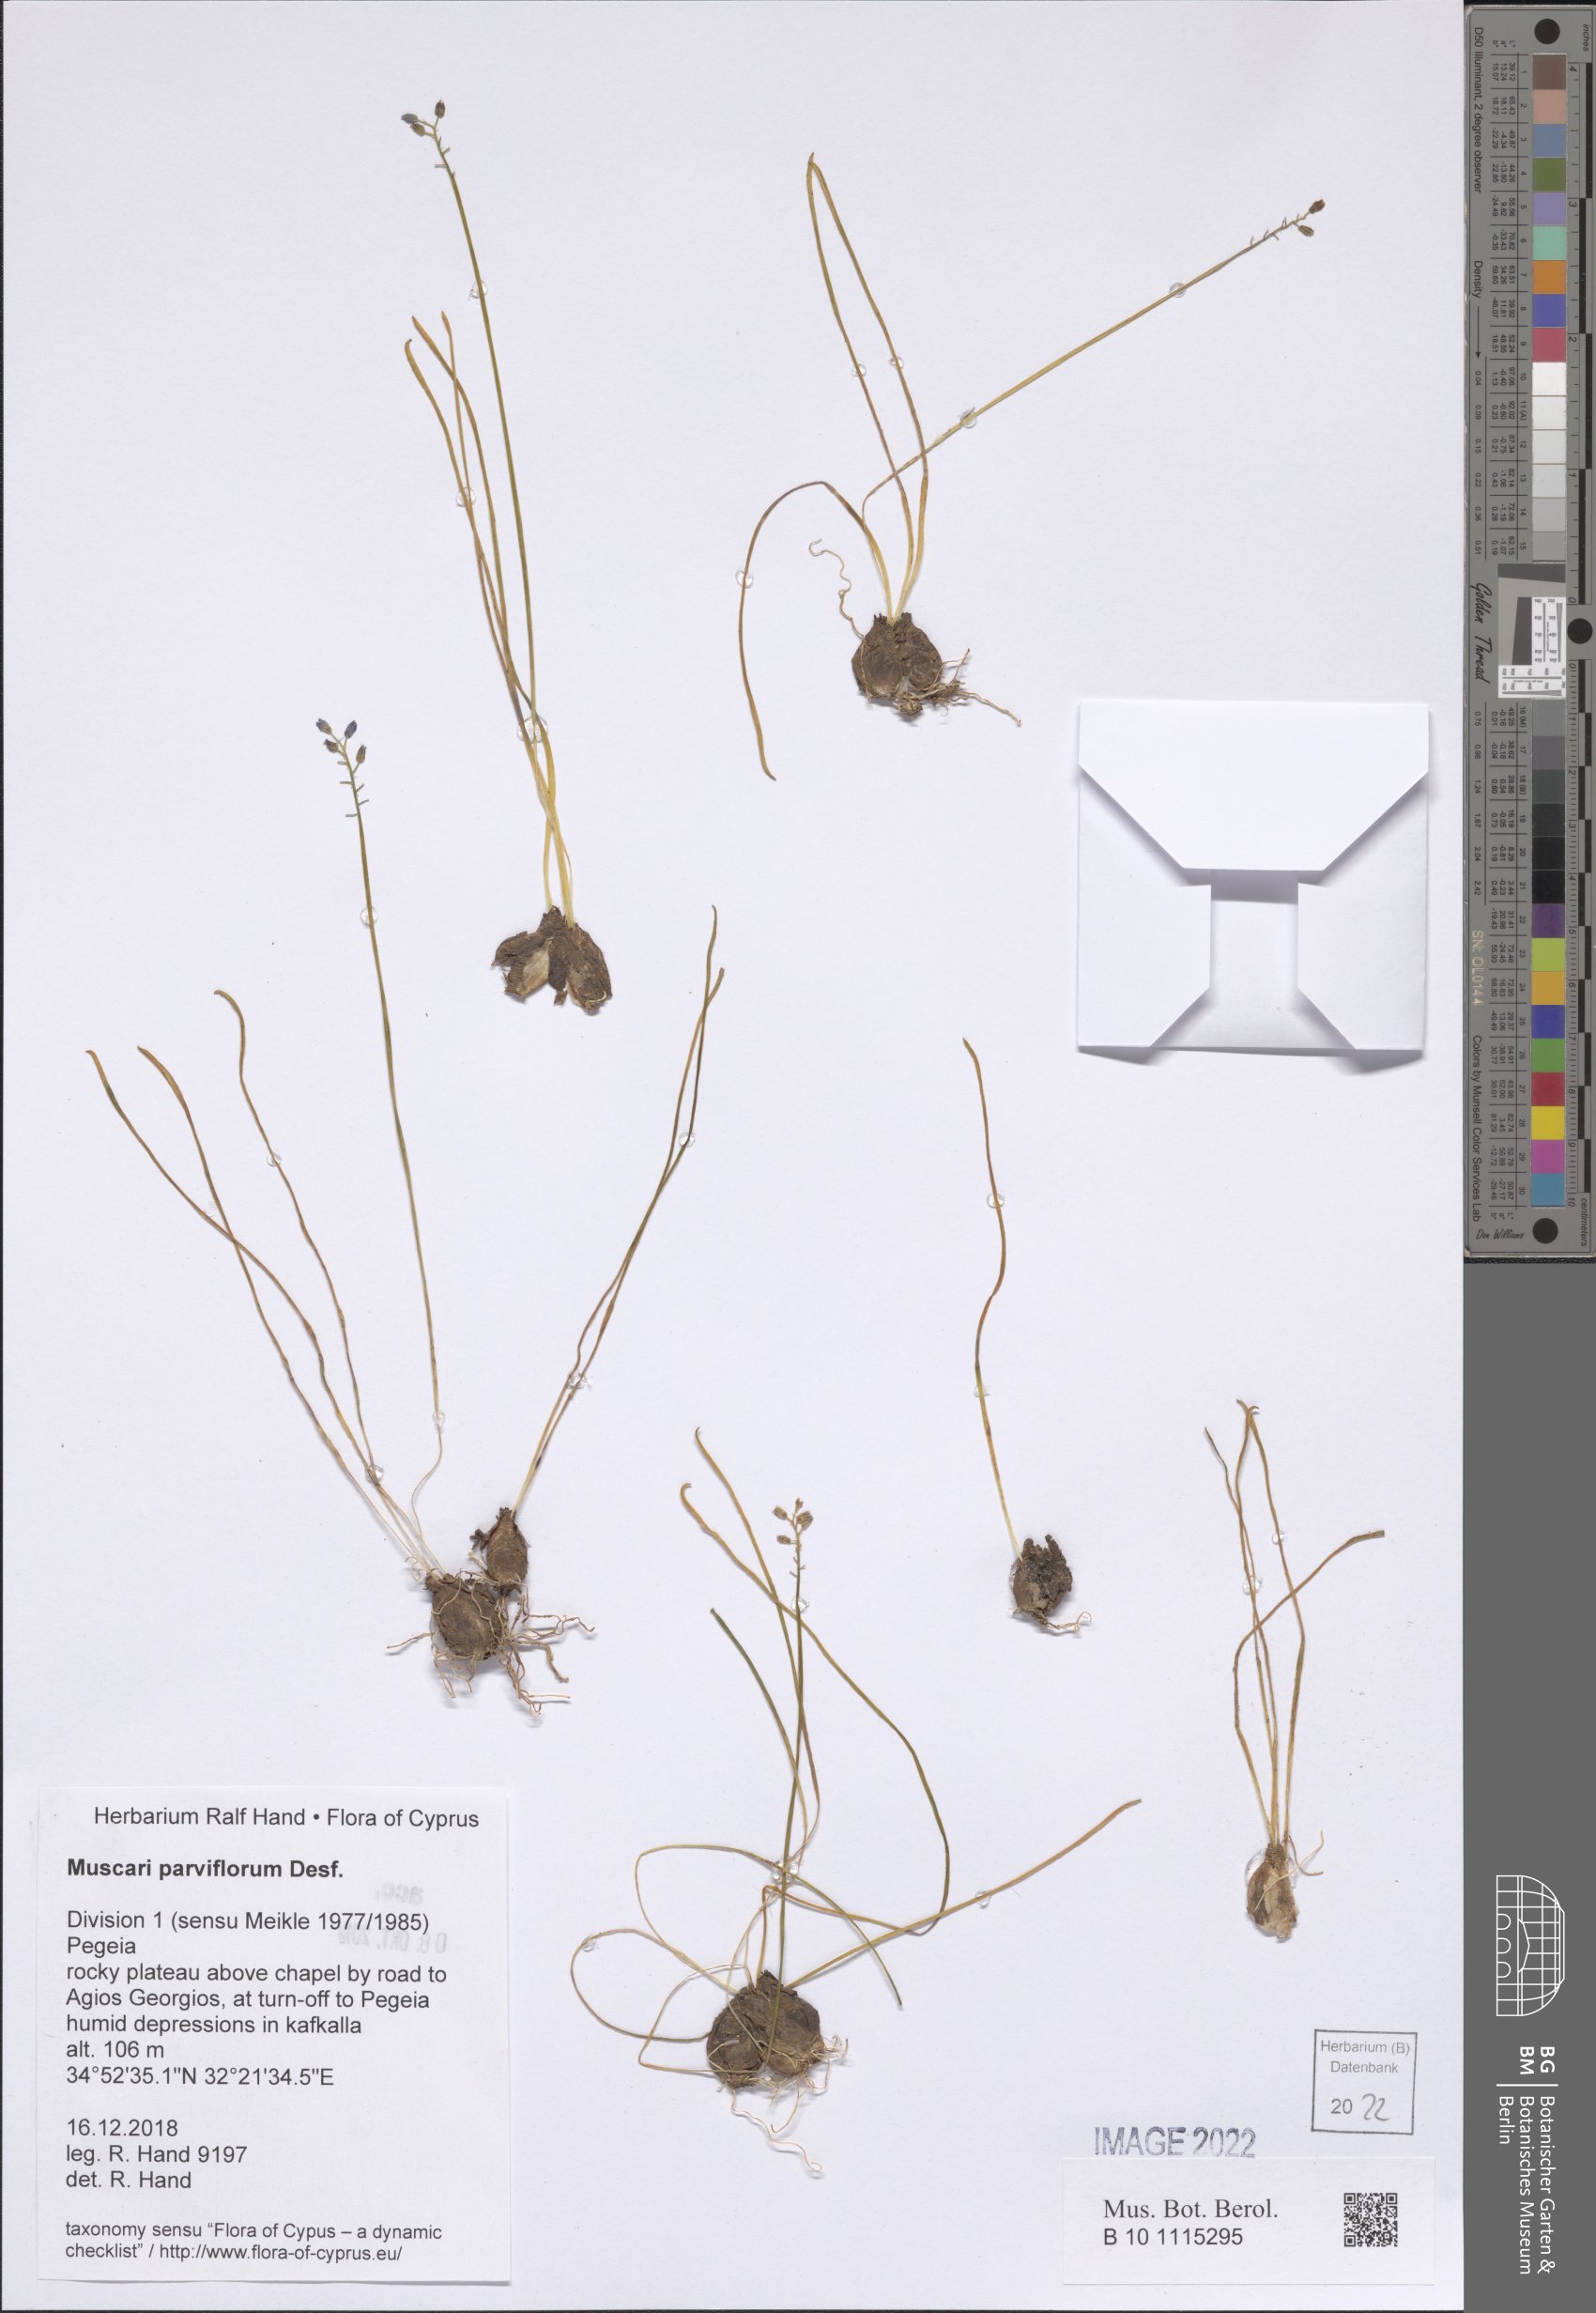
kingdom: Plantae
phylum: Tracheophyta
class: Liliopsida
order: Asparagales
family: Asparagaceae
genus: Muscari
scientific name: Muscari parviflorum
